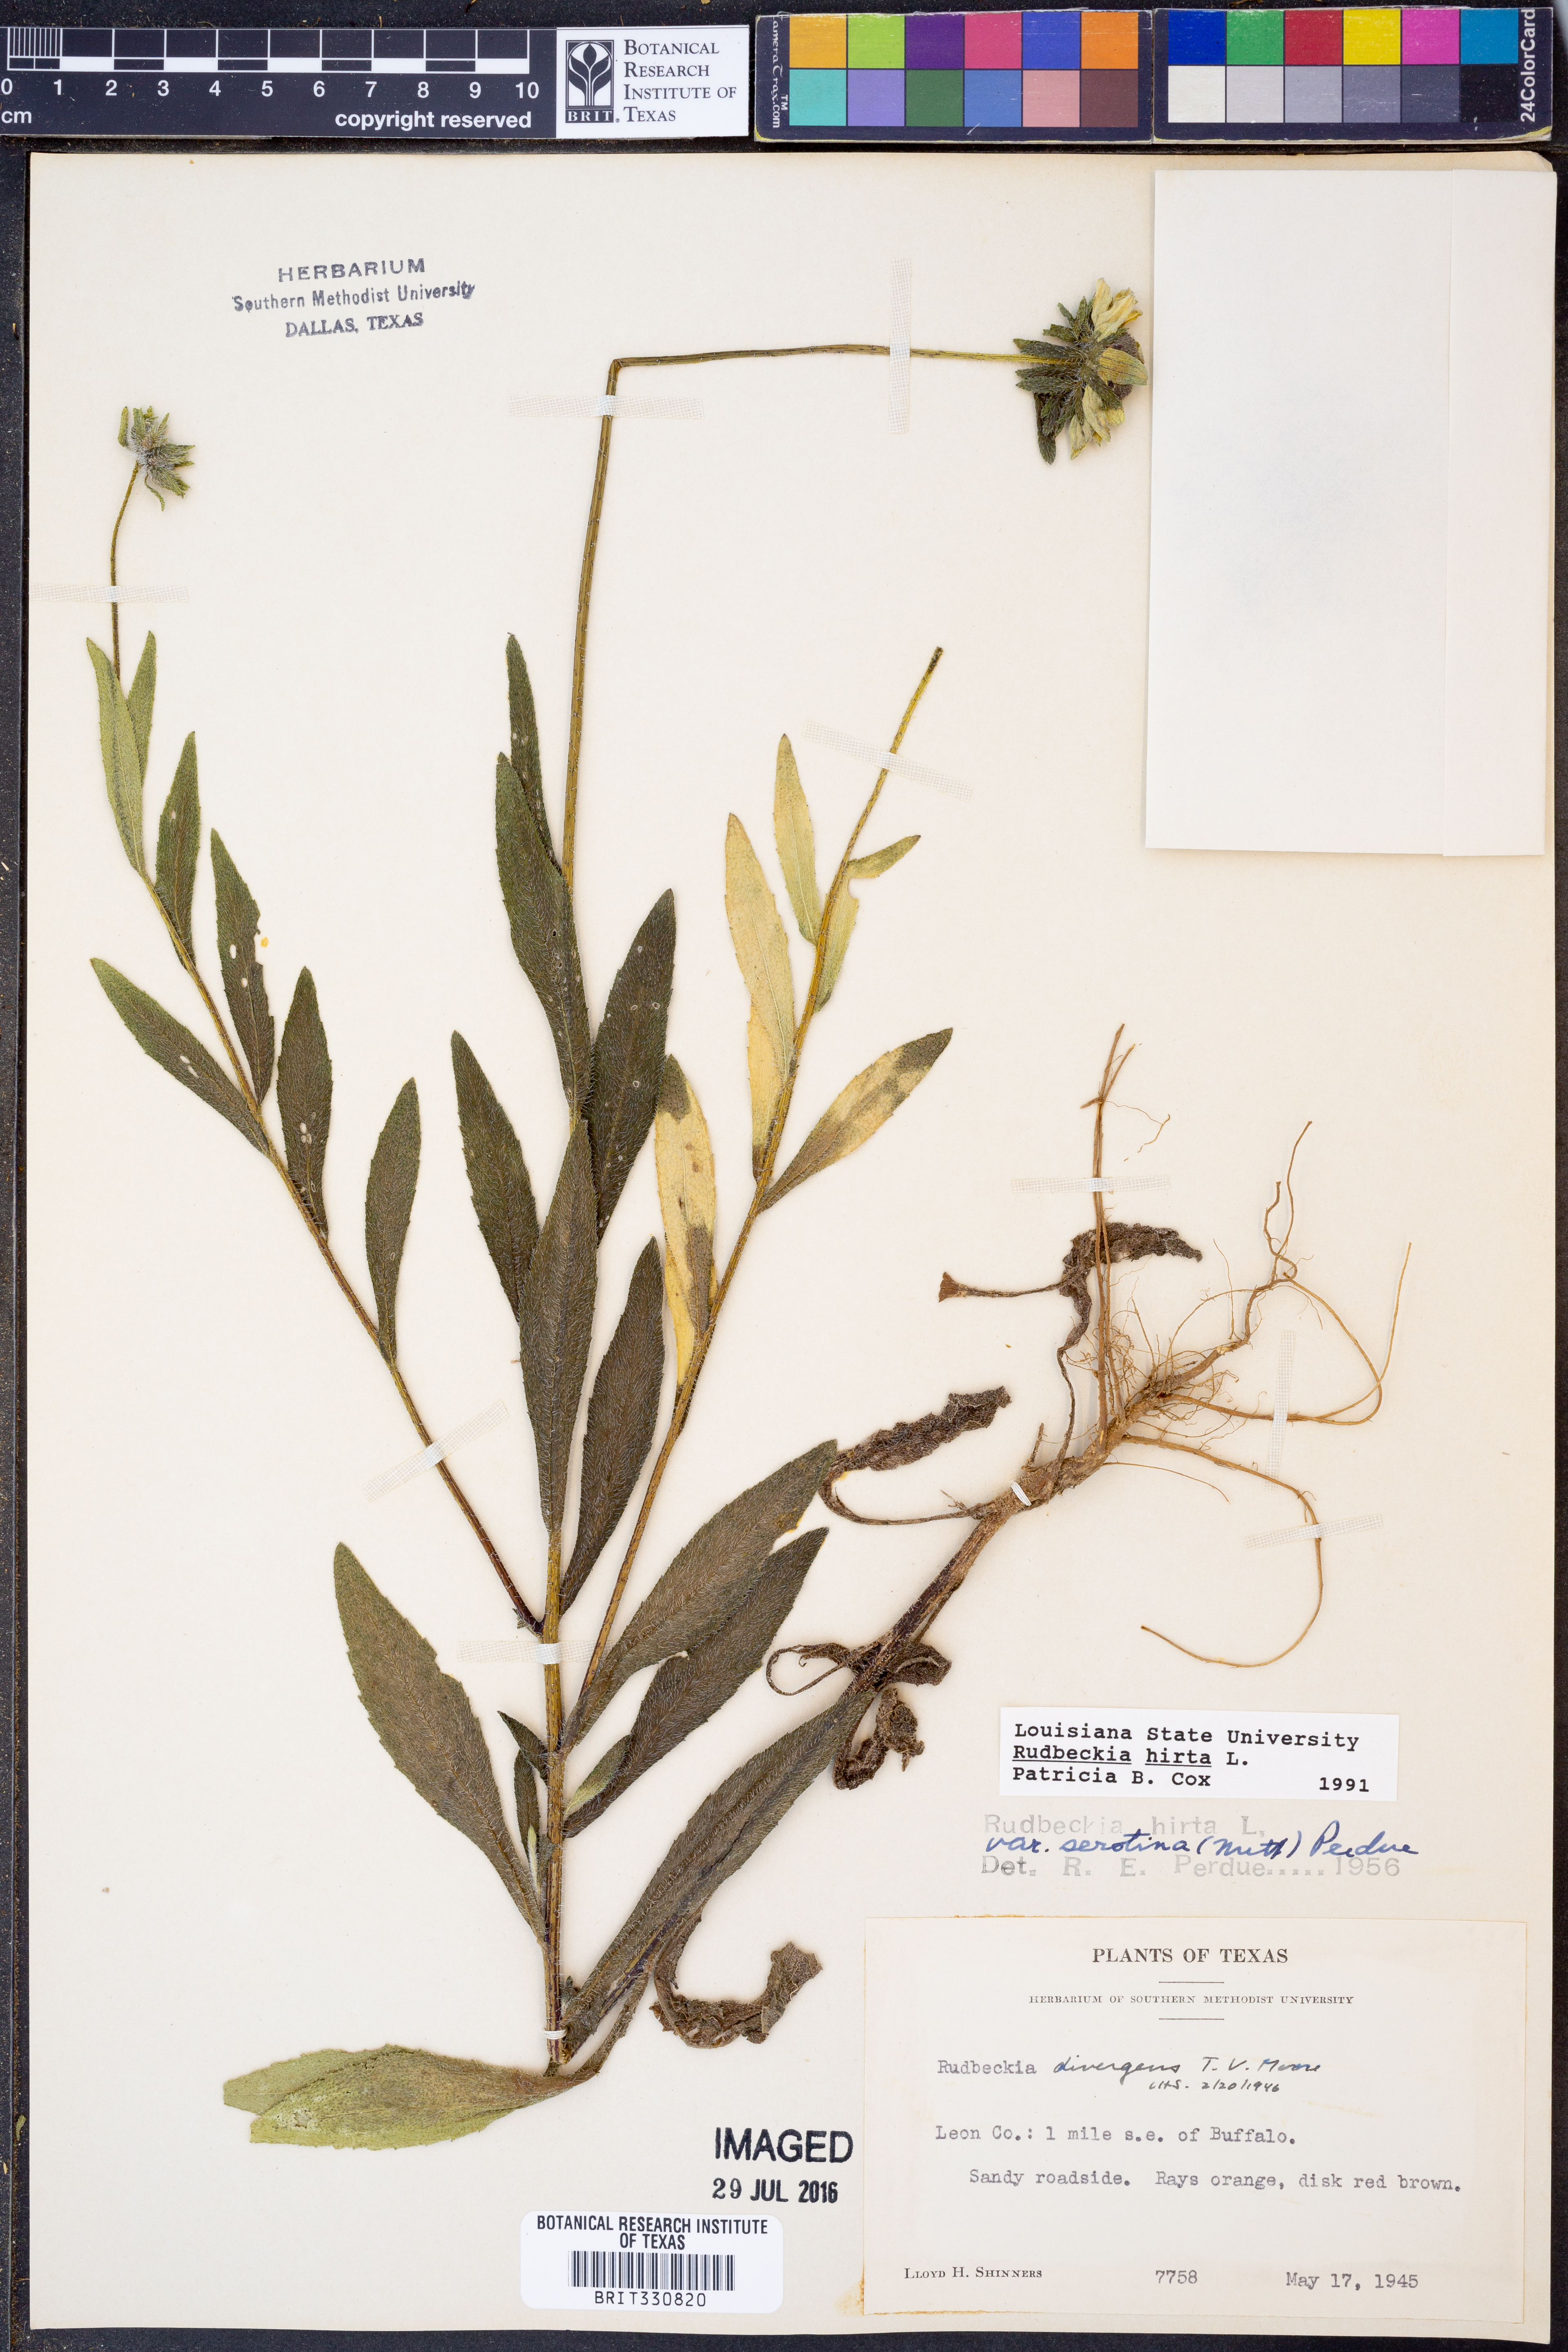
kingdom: Plantae
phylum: Tracheophyta
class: Magnoliopsida
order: Asterales
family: Asteraceae
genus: Rudbeckia
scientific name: Rudbeckia hirta
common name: Black-eyed-susan
